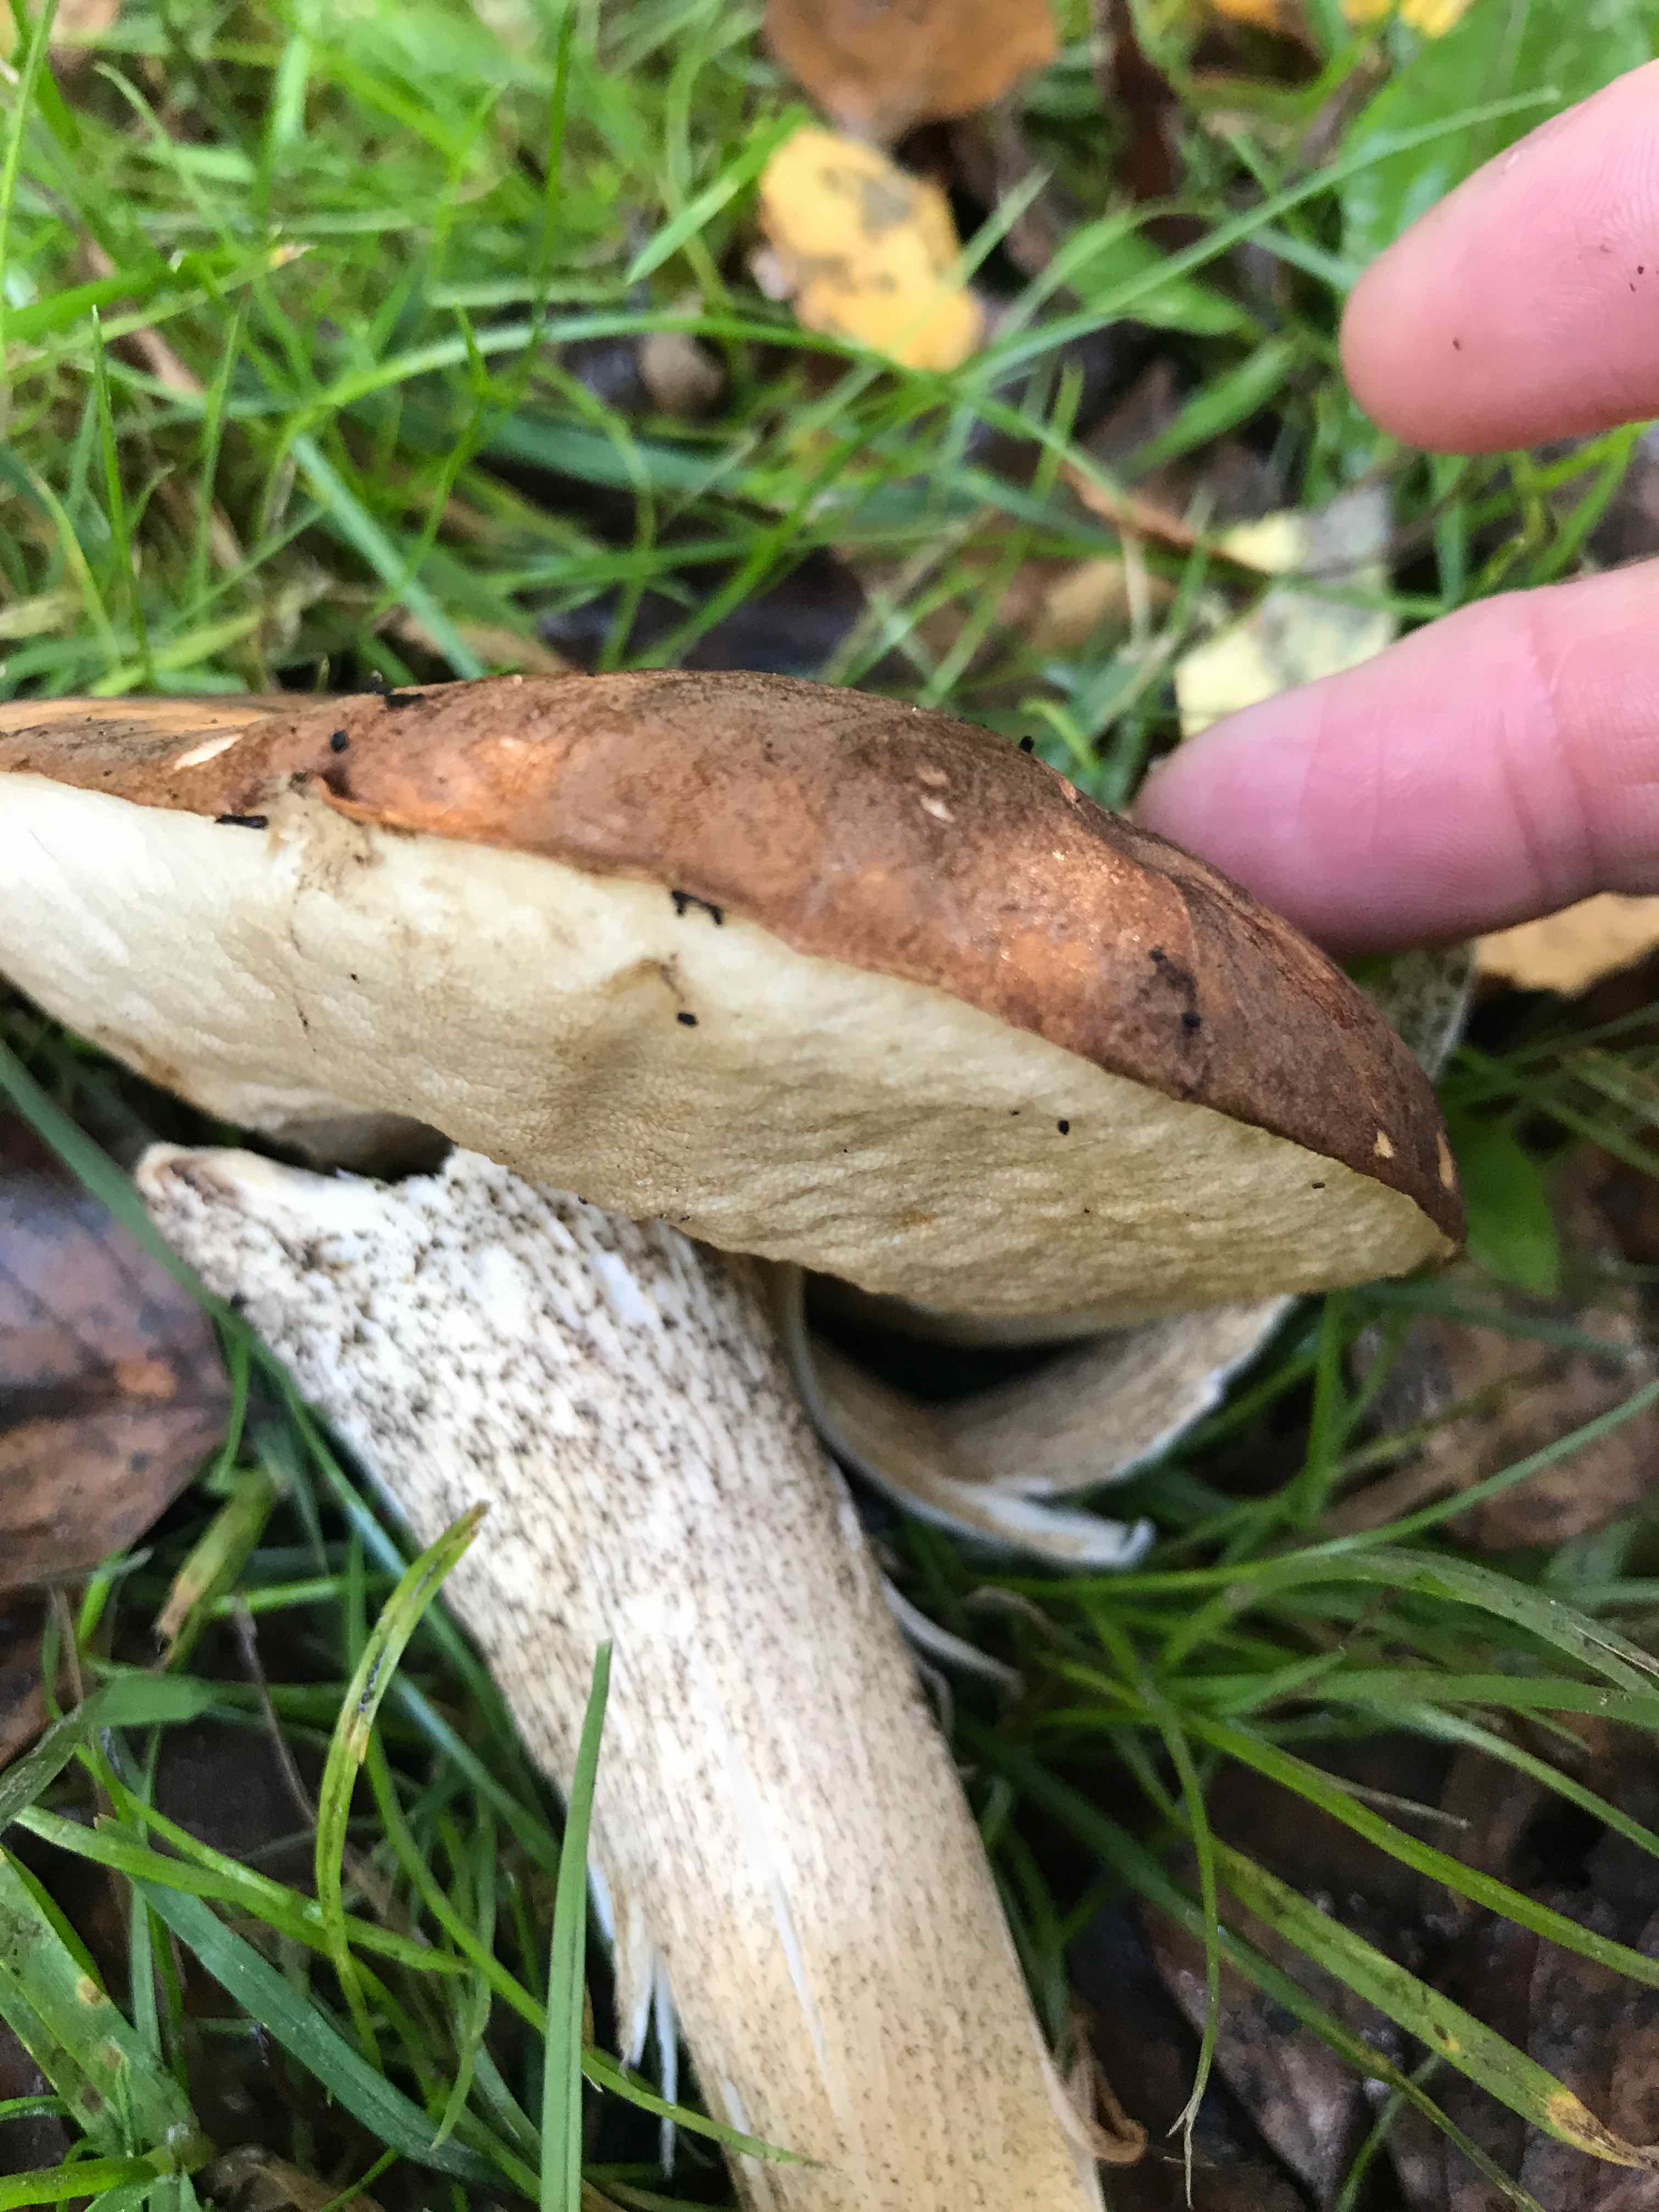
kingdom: Fungi
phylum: Basidiomycota
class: Agaricomycetes
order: Boletales
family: Boletaceae
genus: Leccinum
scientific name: Leccinum scabrum
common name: brun skælrørhat
